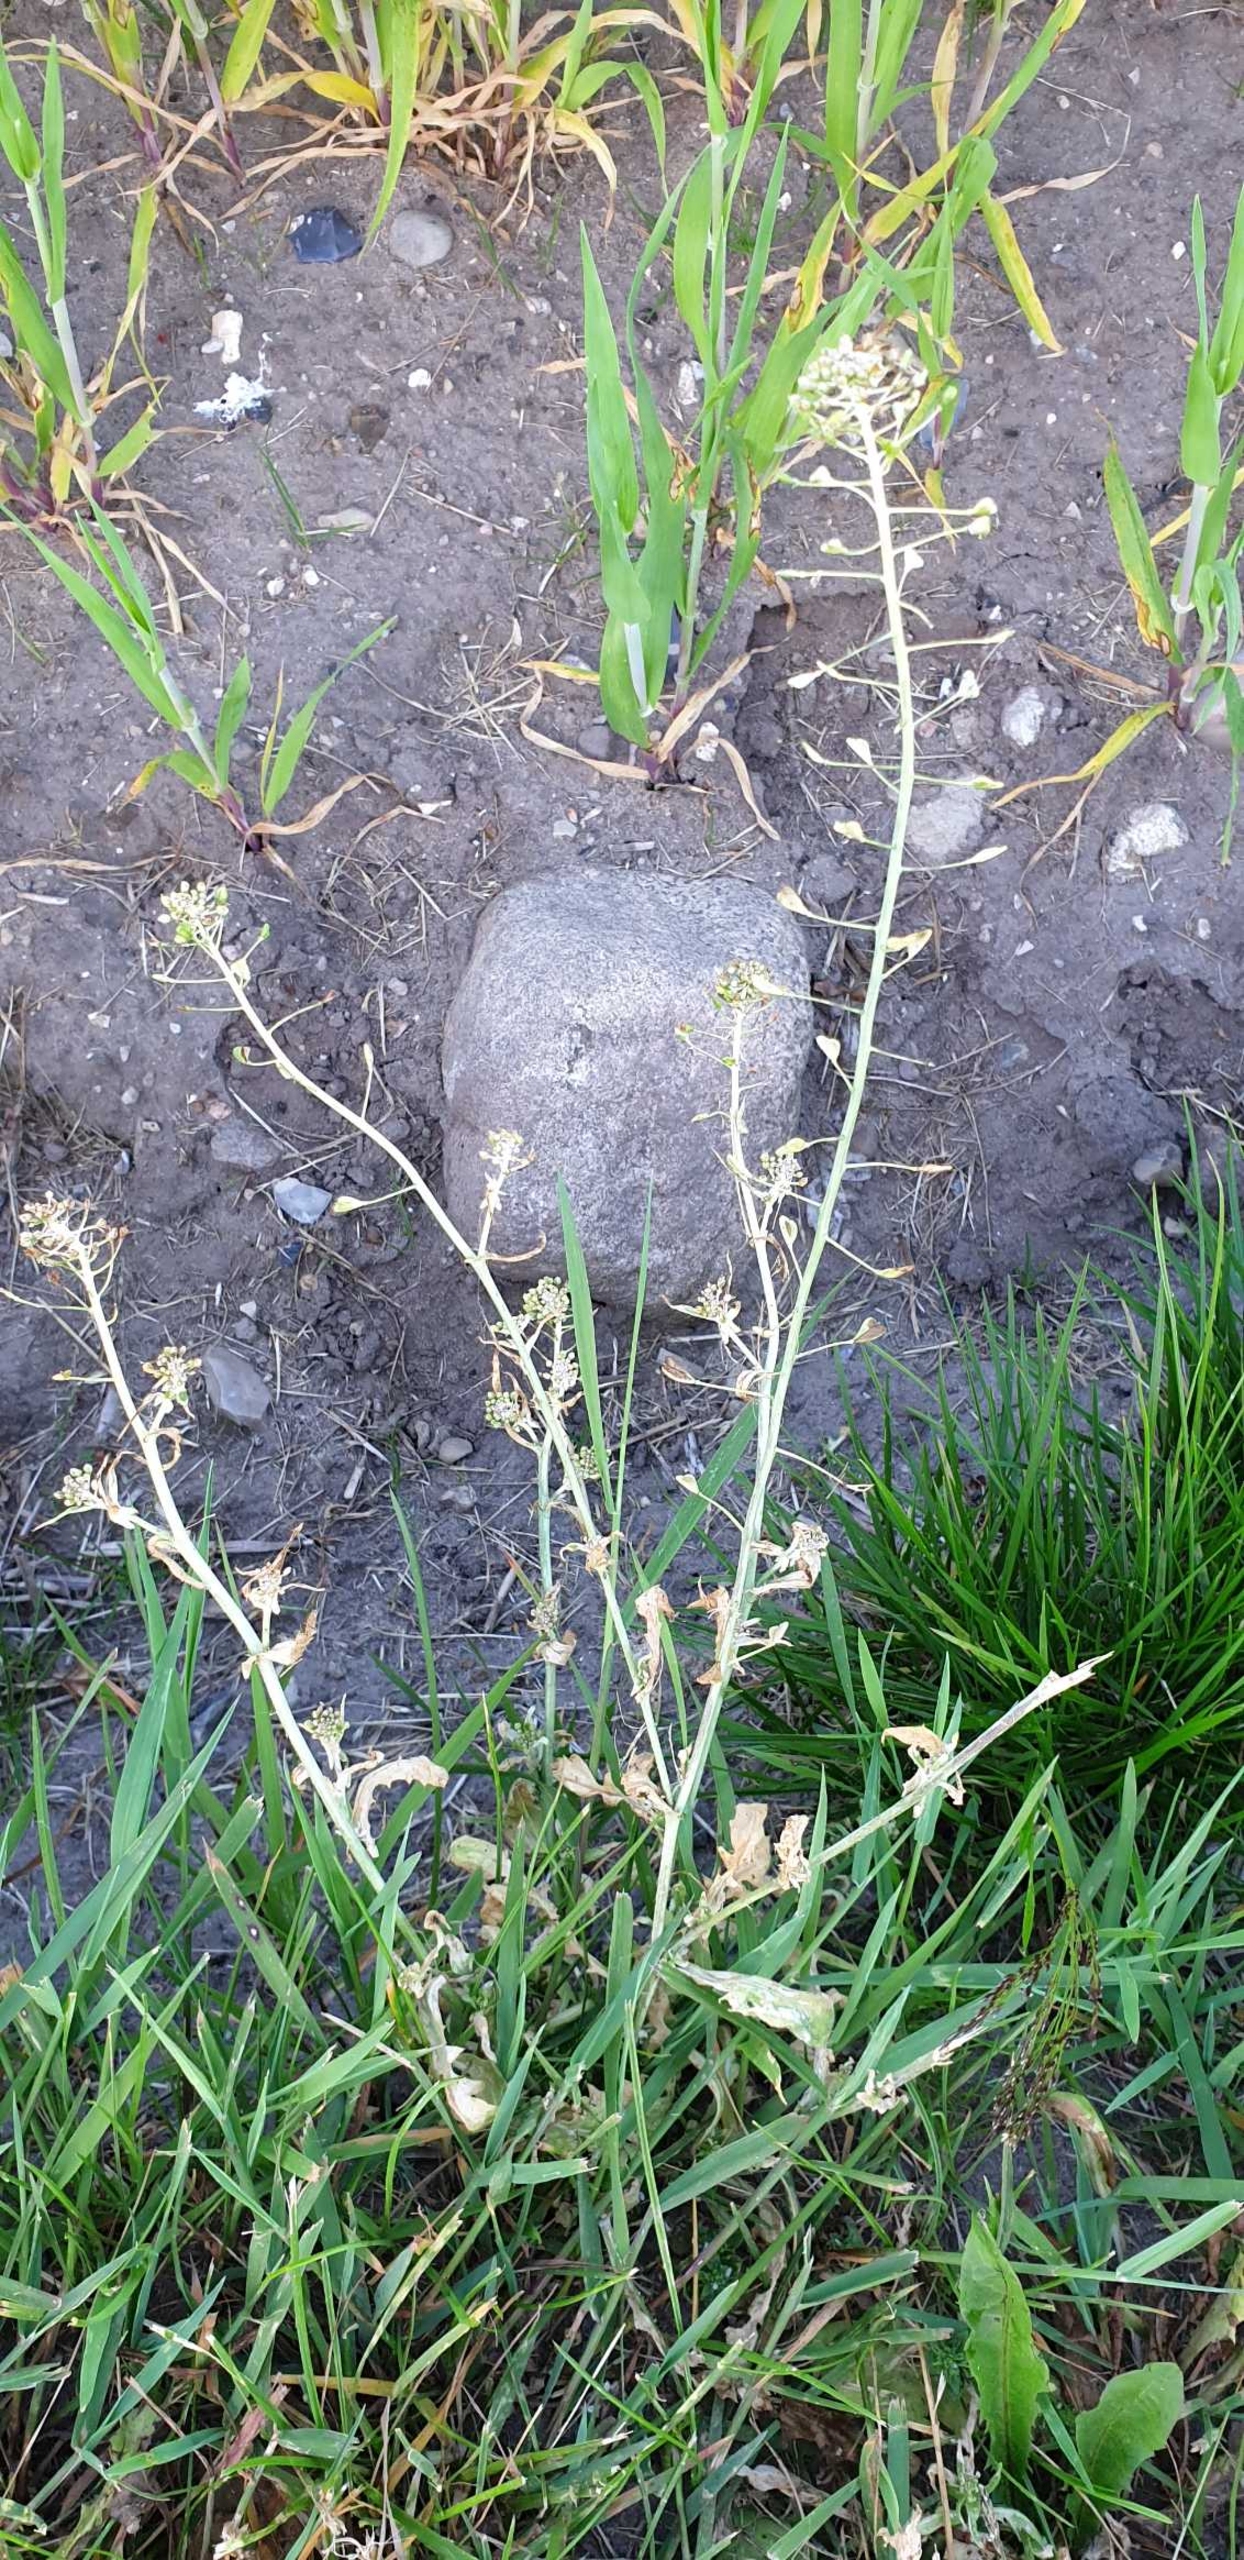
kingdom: Plantae
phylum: Tracheophyta
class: Magnoliopsida
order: Brassicales
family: Brassicaceae
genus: Capsella
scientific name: Capsella bursa-pastoris
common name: Hyrdetaske
